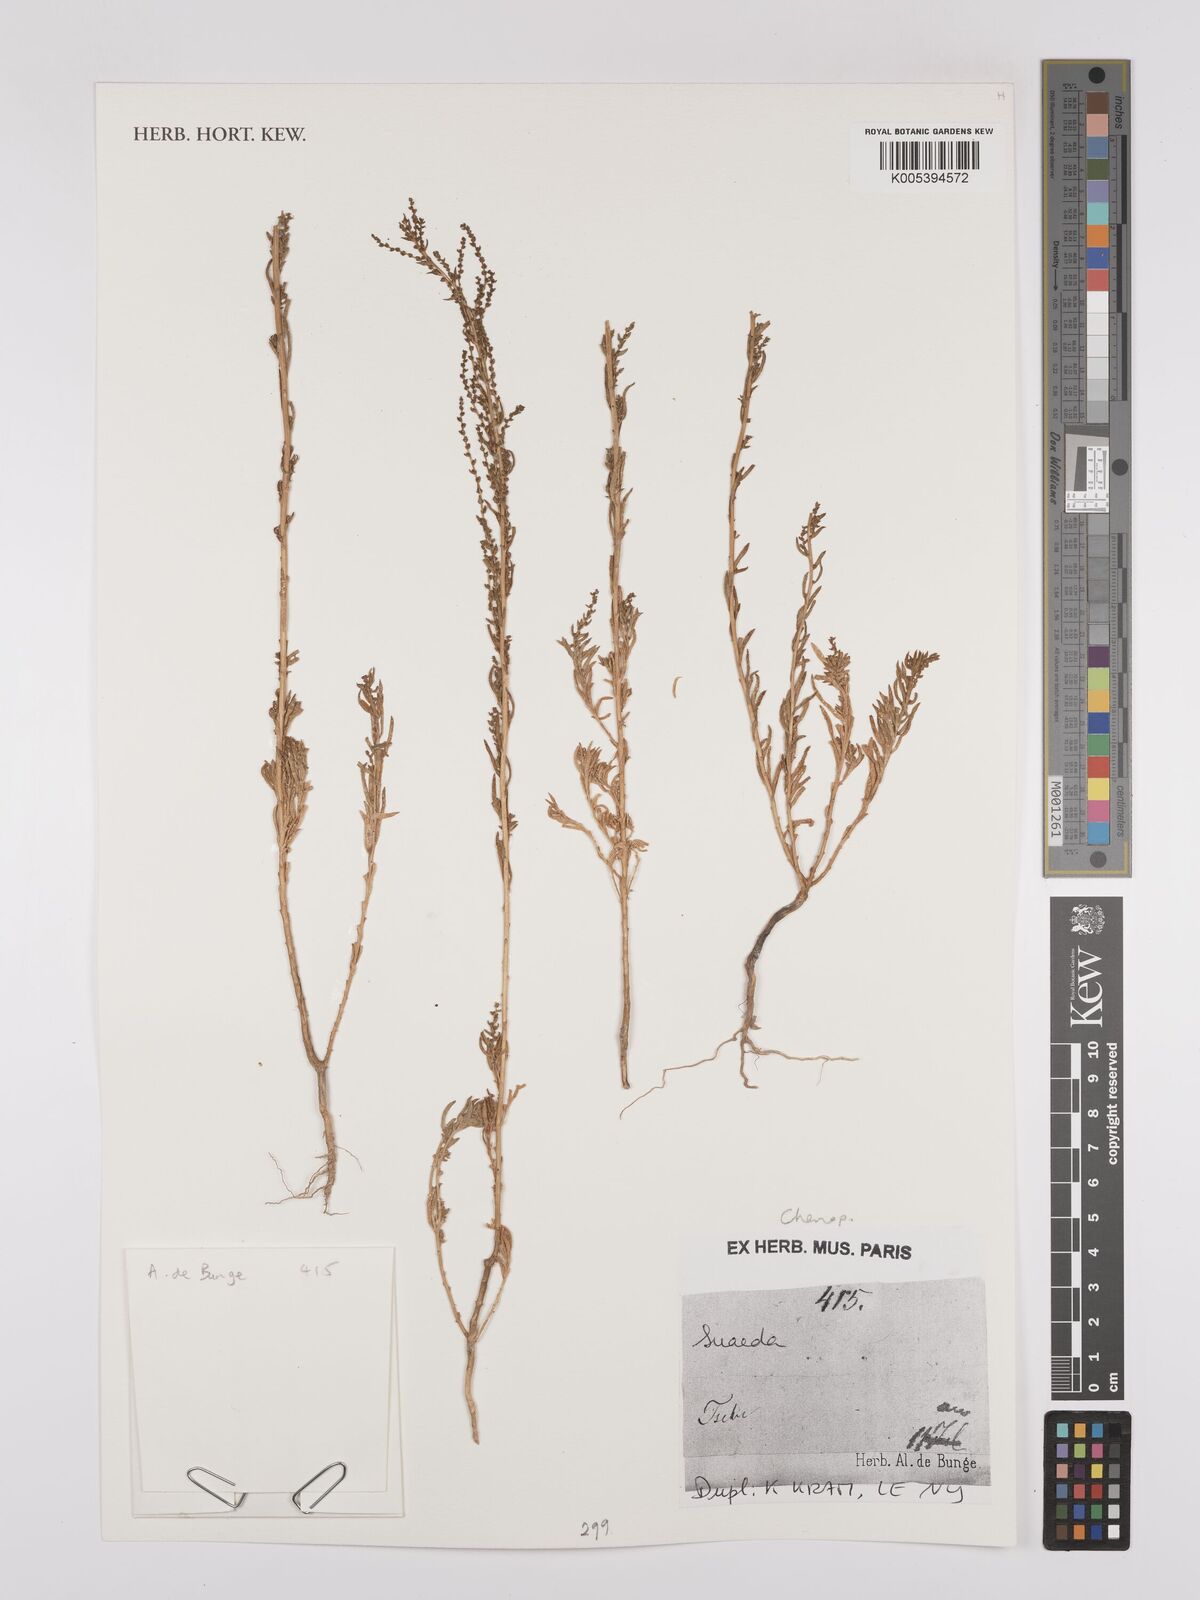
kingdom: Plantae
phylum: Tracheophyta
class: Magnoliopsida
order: Caryophyllales
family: Amaranthaceae
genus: Suaeda
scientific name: Suaeda
